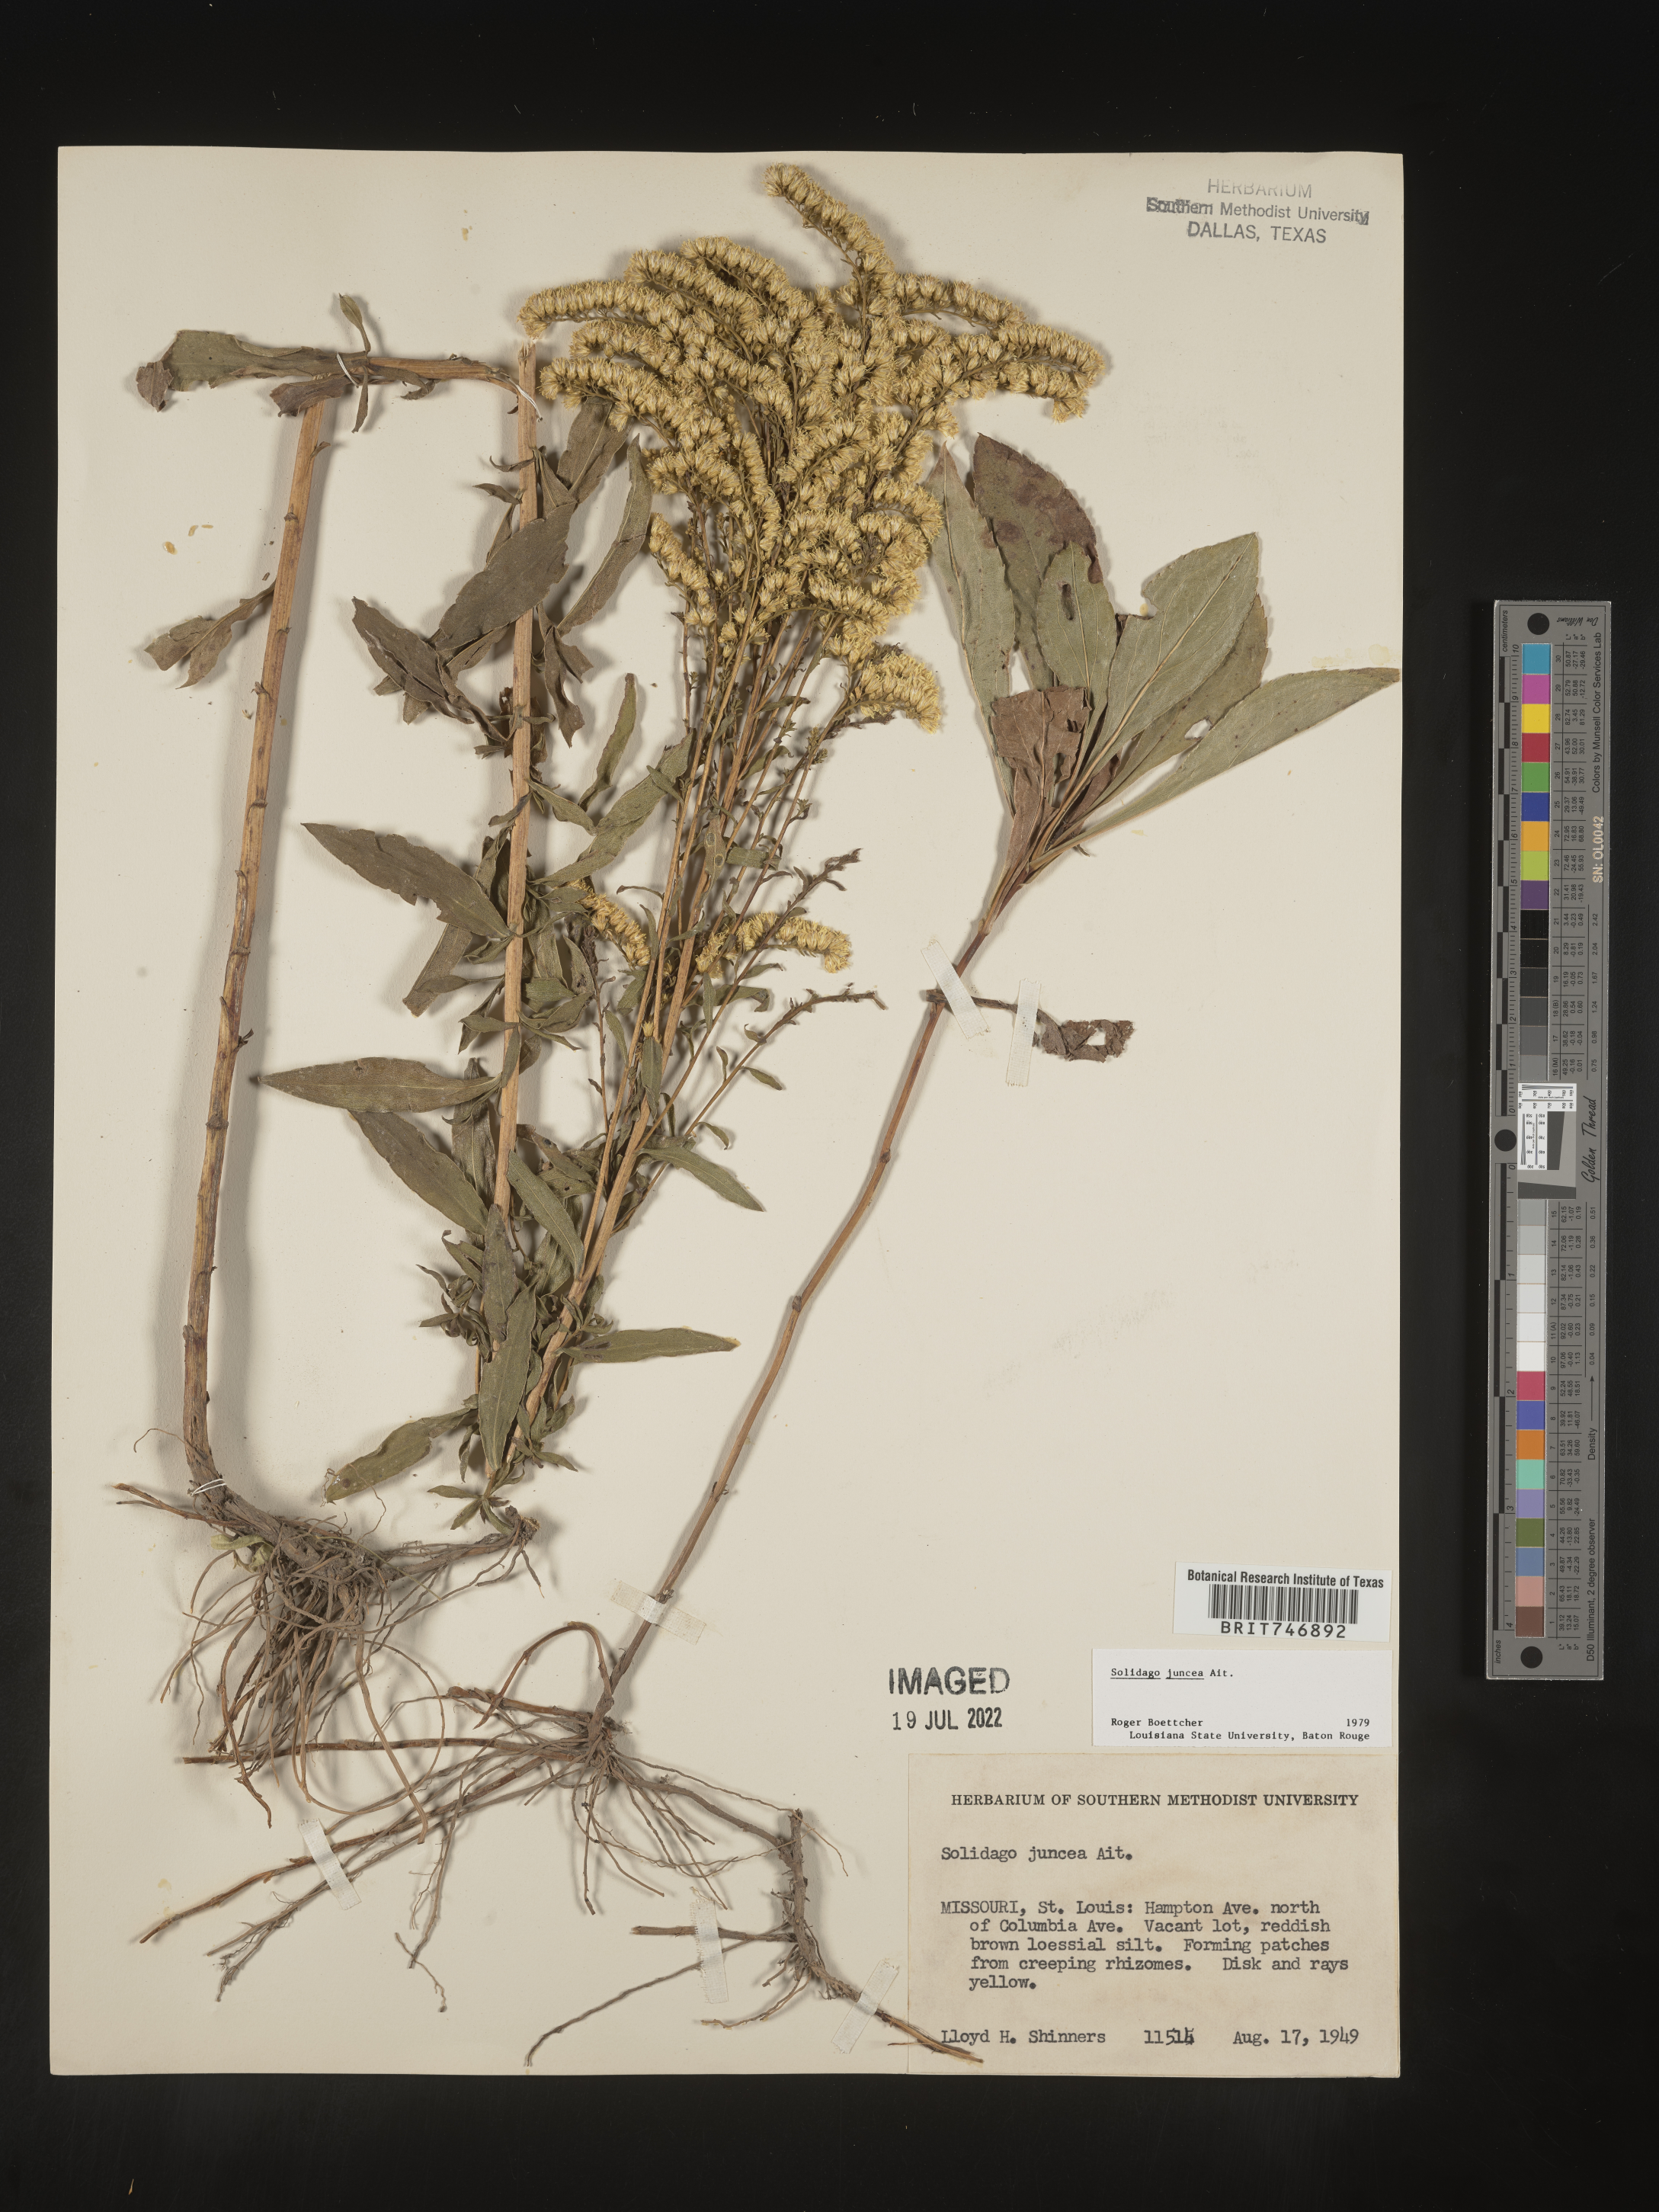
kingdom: Plantae
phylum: Tracheophyta
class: Magnoliopsida
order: Asterales
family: Asteraceae
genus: Solidago
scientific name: Solidago juncea
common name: Early goldenrod
